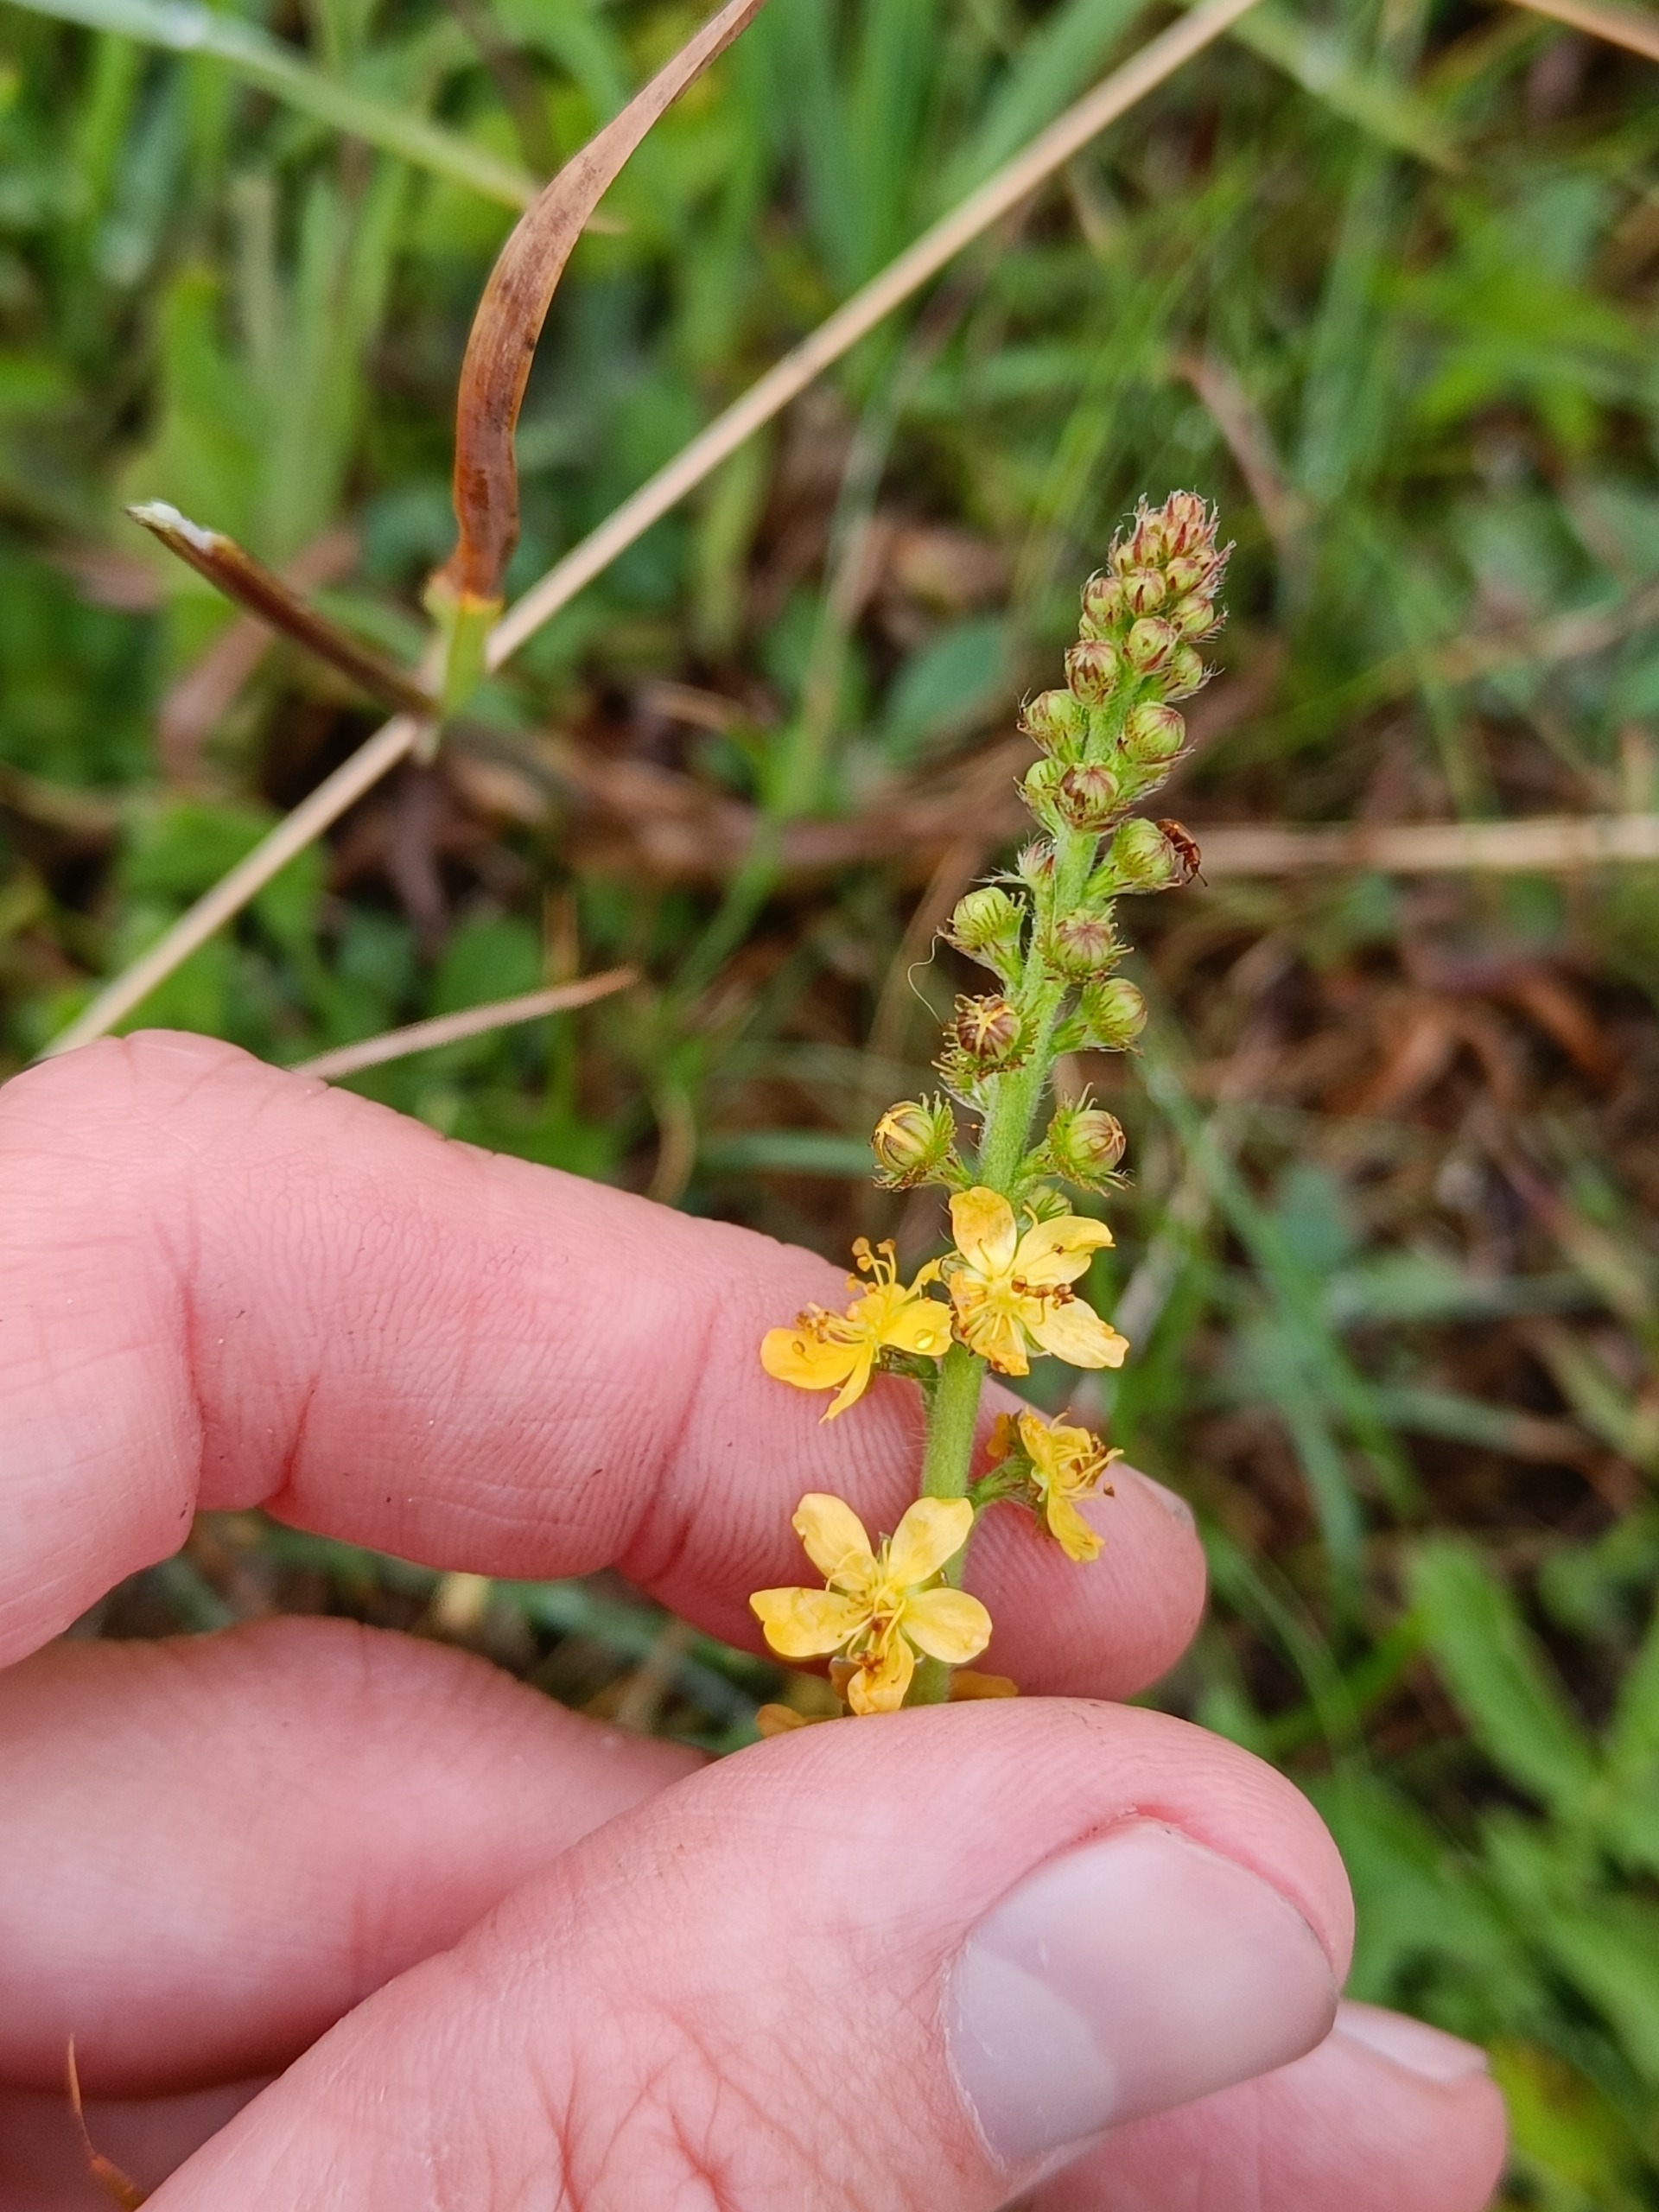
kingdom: Plantae
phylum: Tracheophyta
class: Magnoliopsida
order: Rosales
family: Rosaceae
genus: Agrimonia
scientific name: Agrimonia eupatoria
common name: Almindelig agermåne
